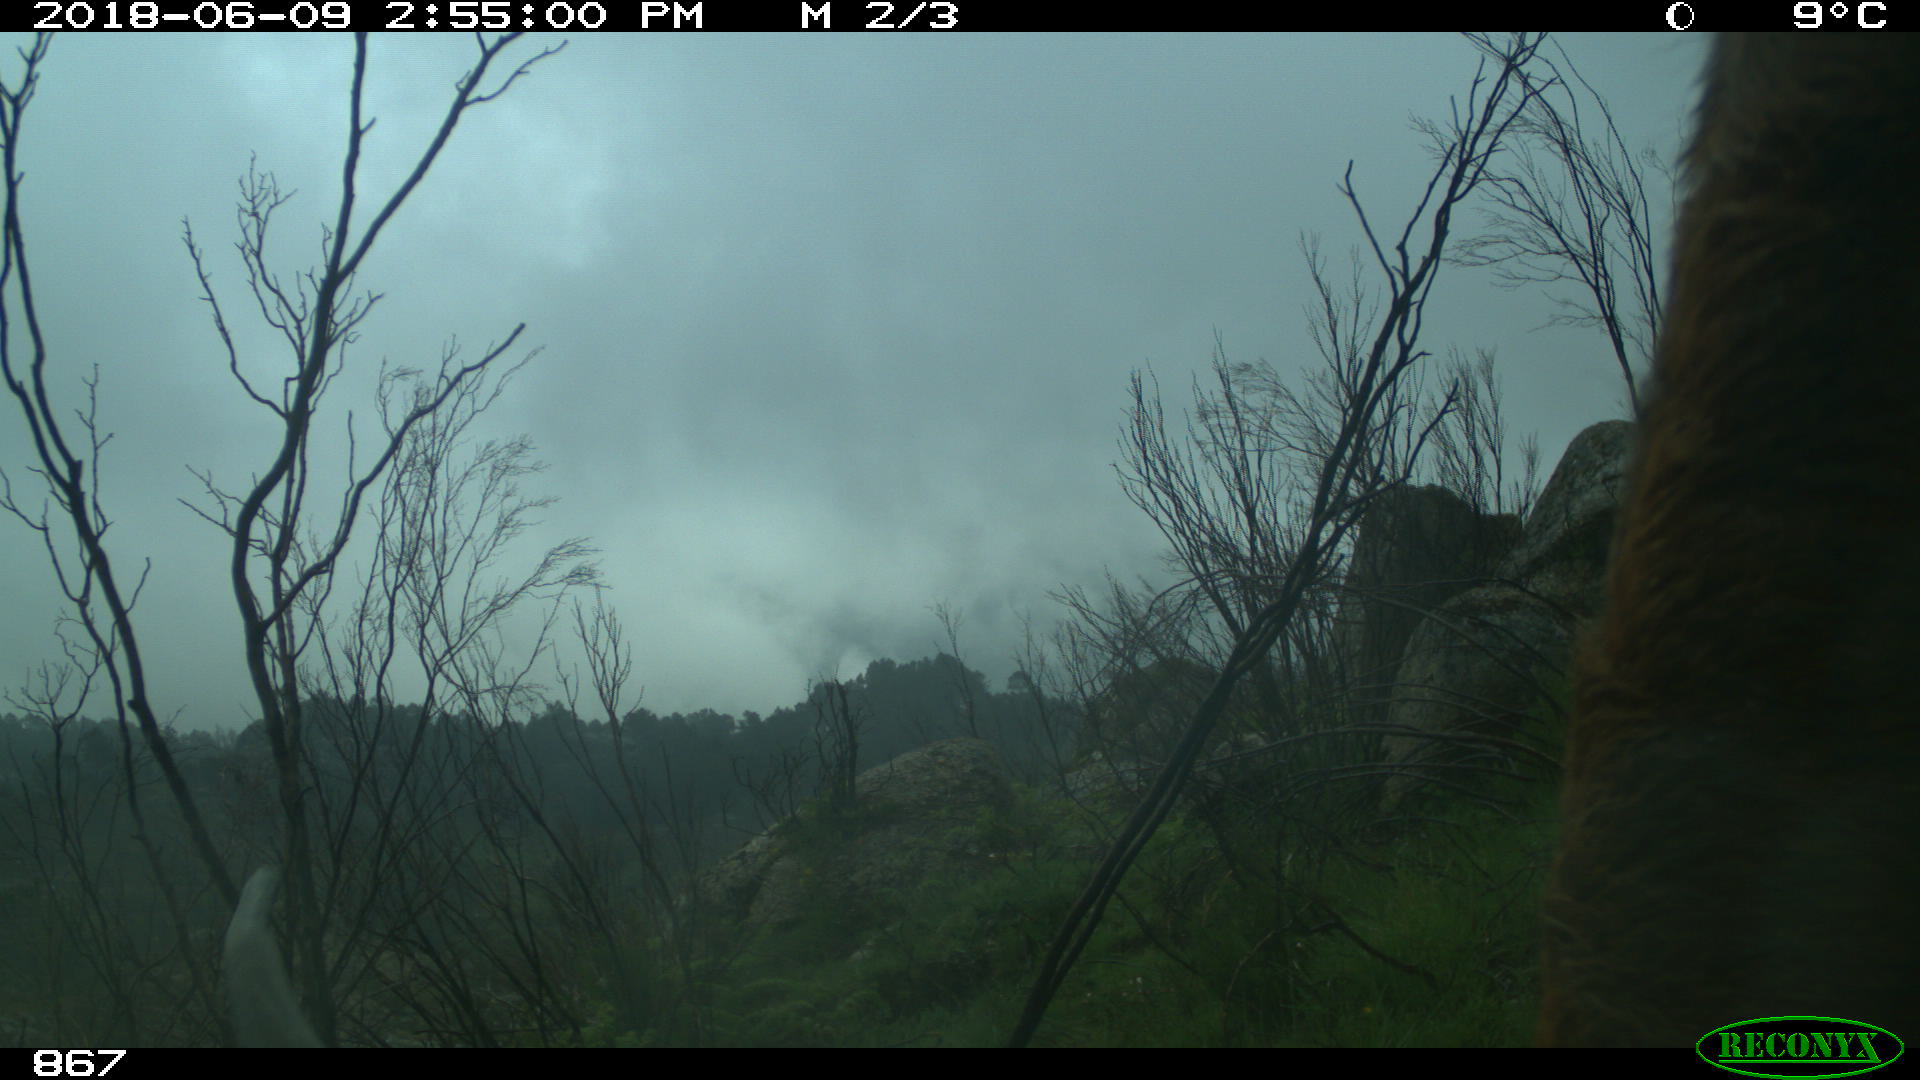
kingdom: Animalia
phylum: Chordata
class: Mammalia
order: Artiodactyla
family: Bovidae
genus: Bos
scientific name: Bos taurus
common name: Domesticated cattle
